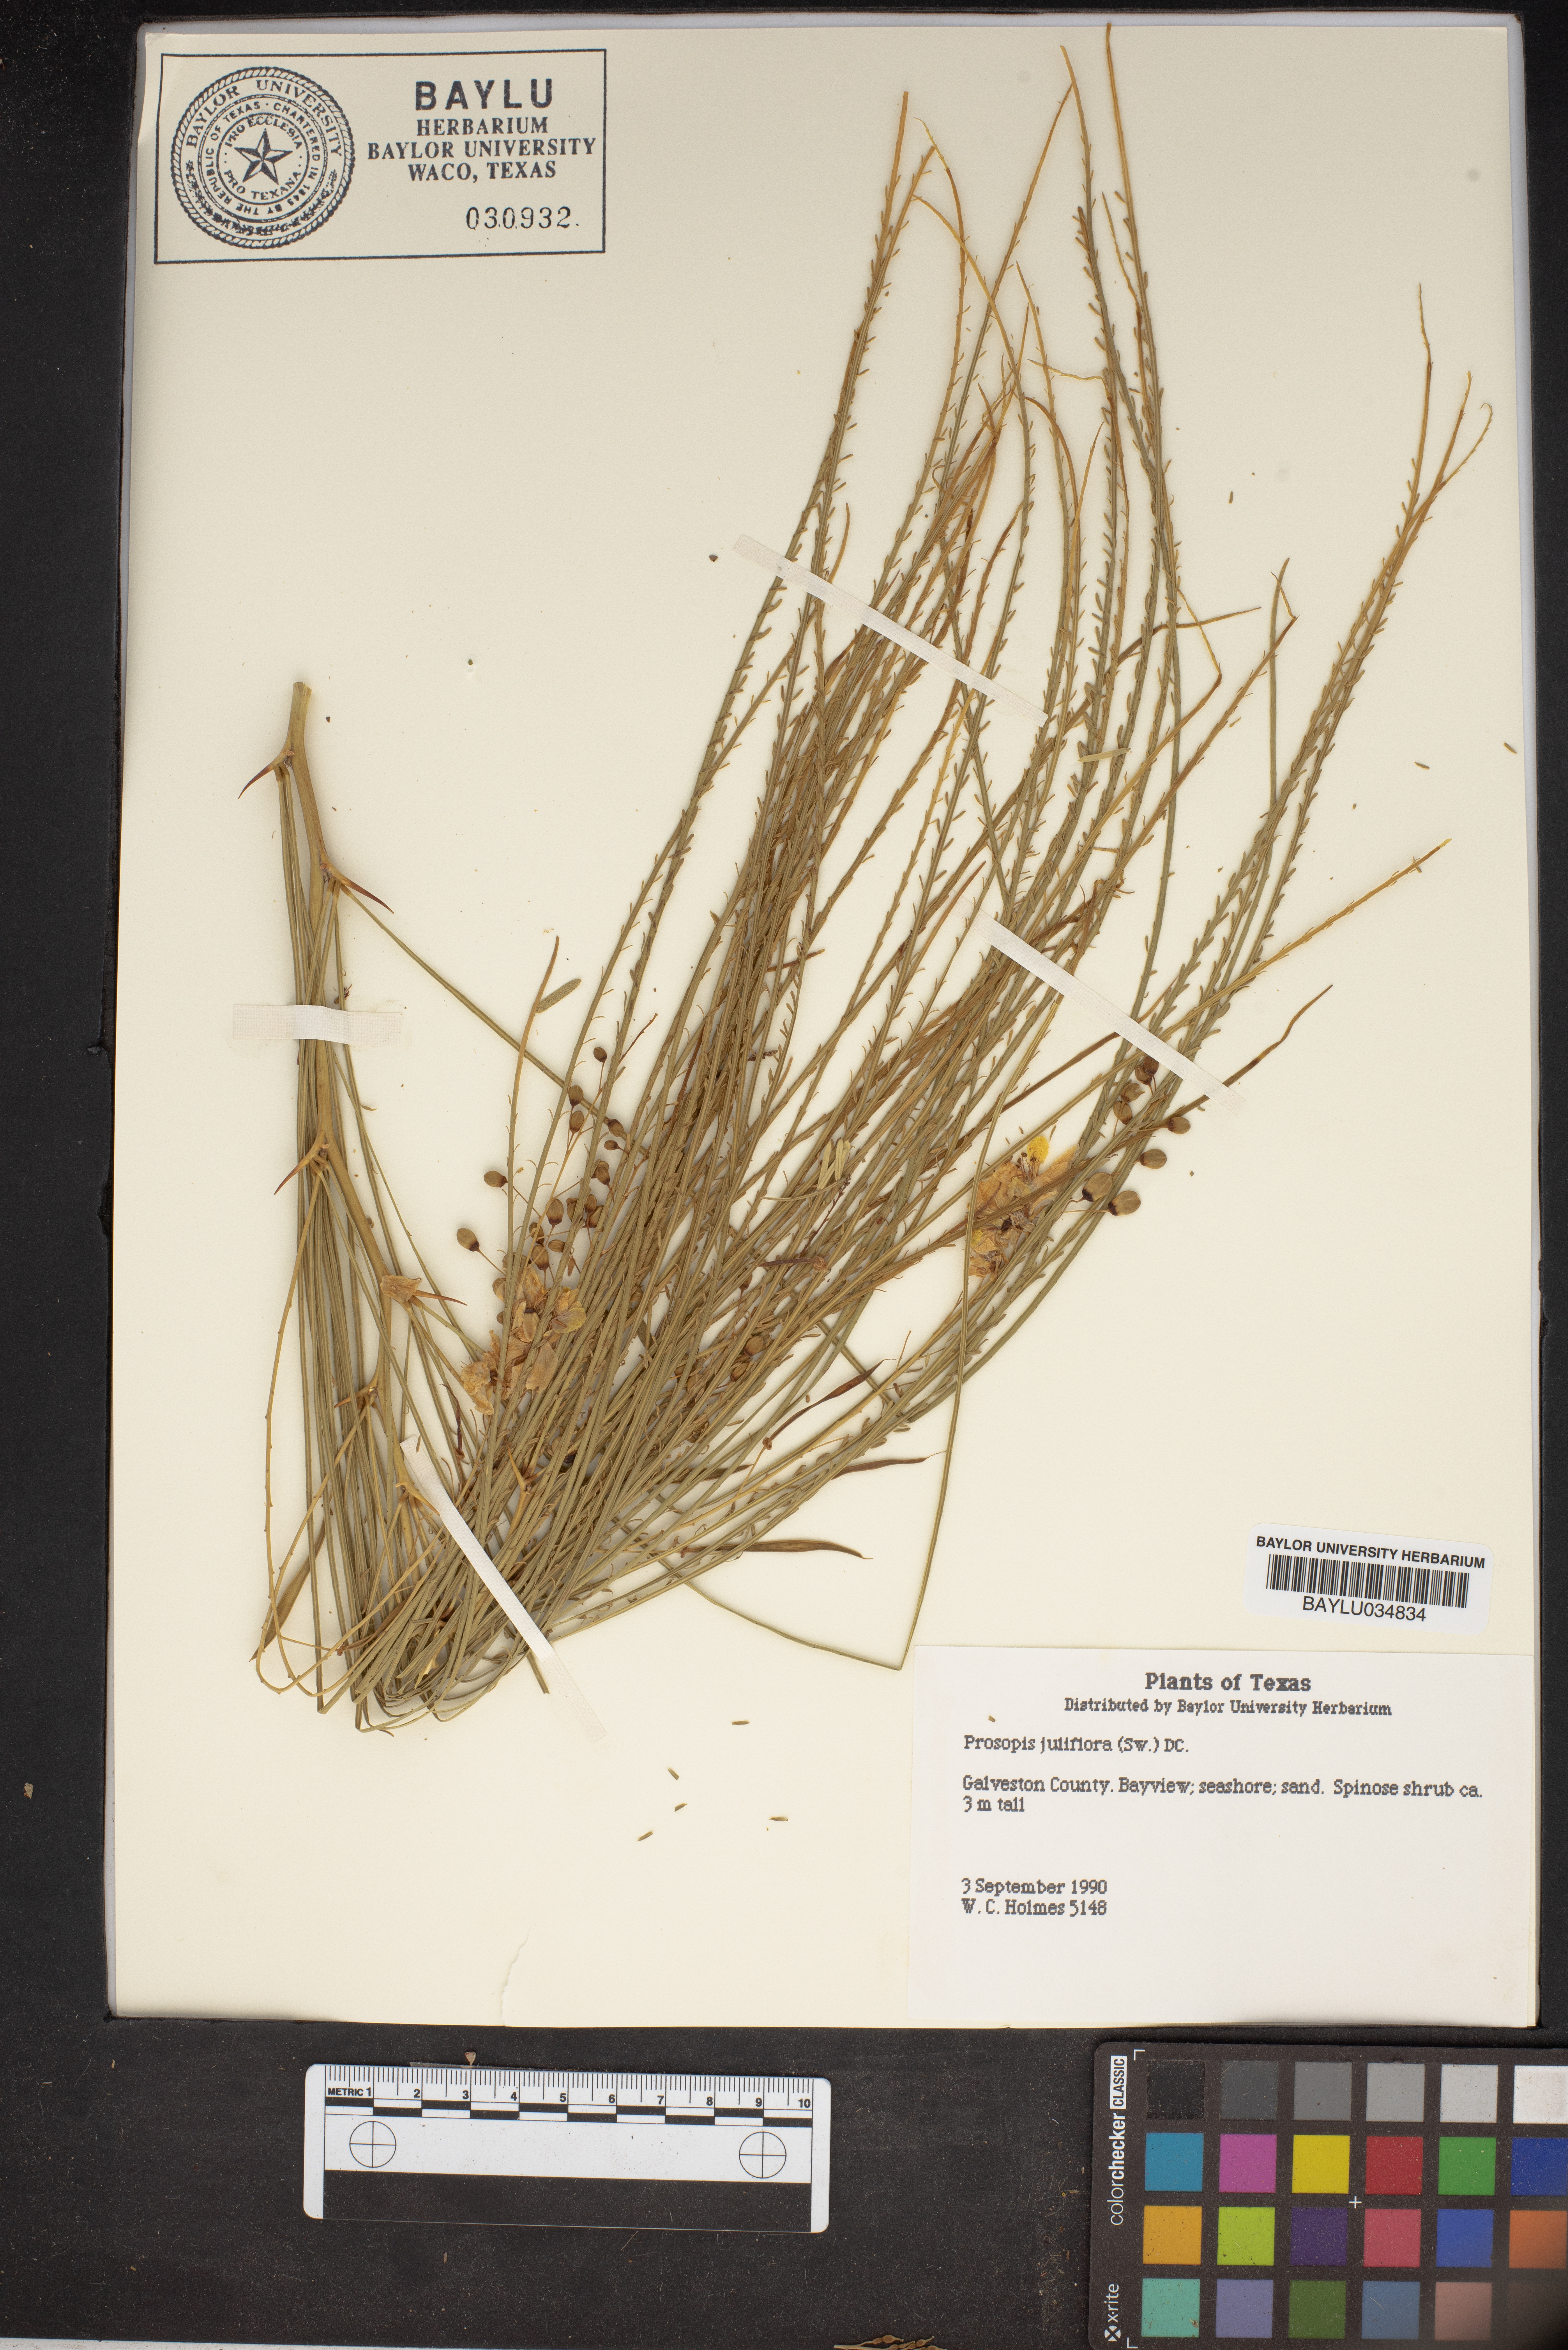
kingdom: Plantae
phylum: Tracheophyta
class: Magnoliopsida
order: Fabales
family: Fabaceae
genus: Prosopis
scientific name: Prosopis juliflora
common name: Mesquite
